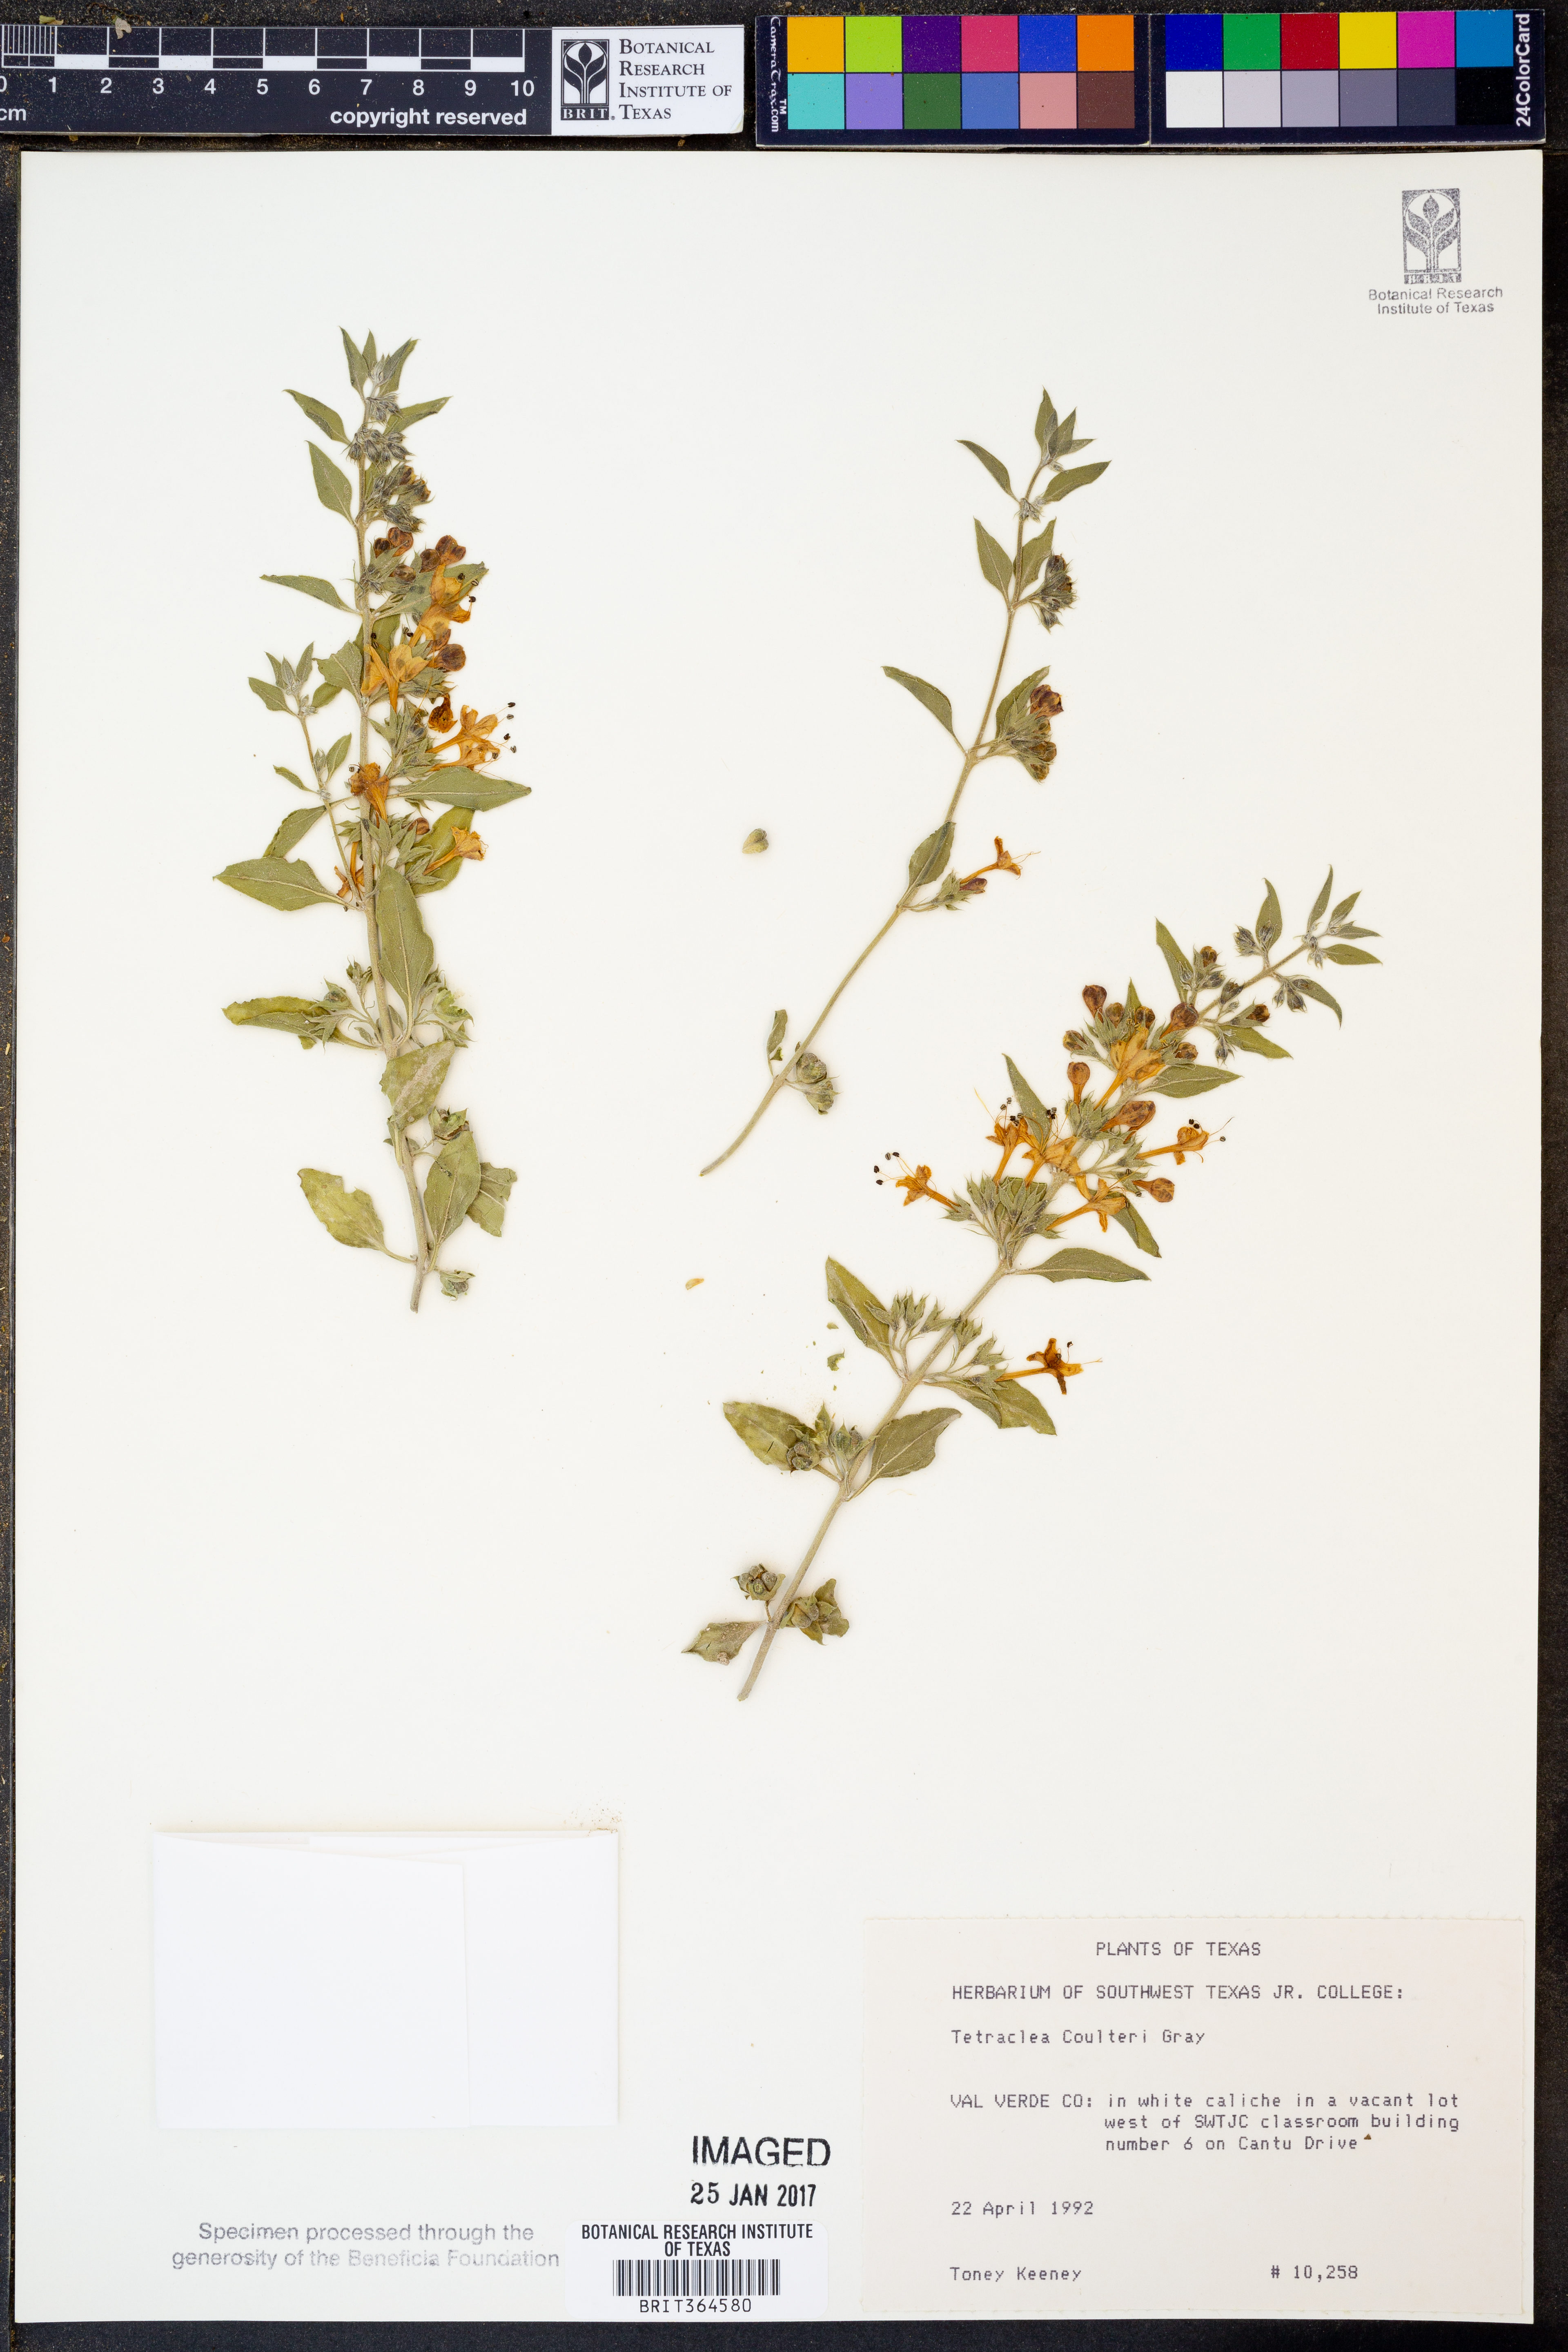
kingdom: Plantae
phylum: Tracheophyta
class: Magnoliopsida
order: Lamiales
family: Lamiaceae
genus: Tetraclea
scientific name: Tetraclea coulteri
